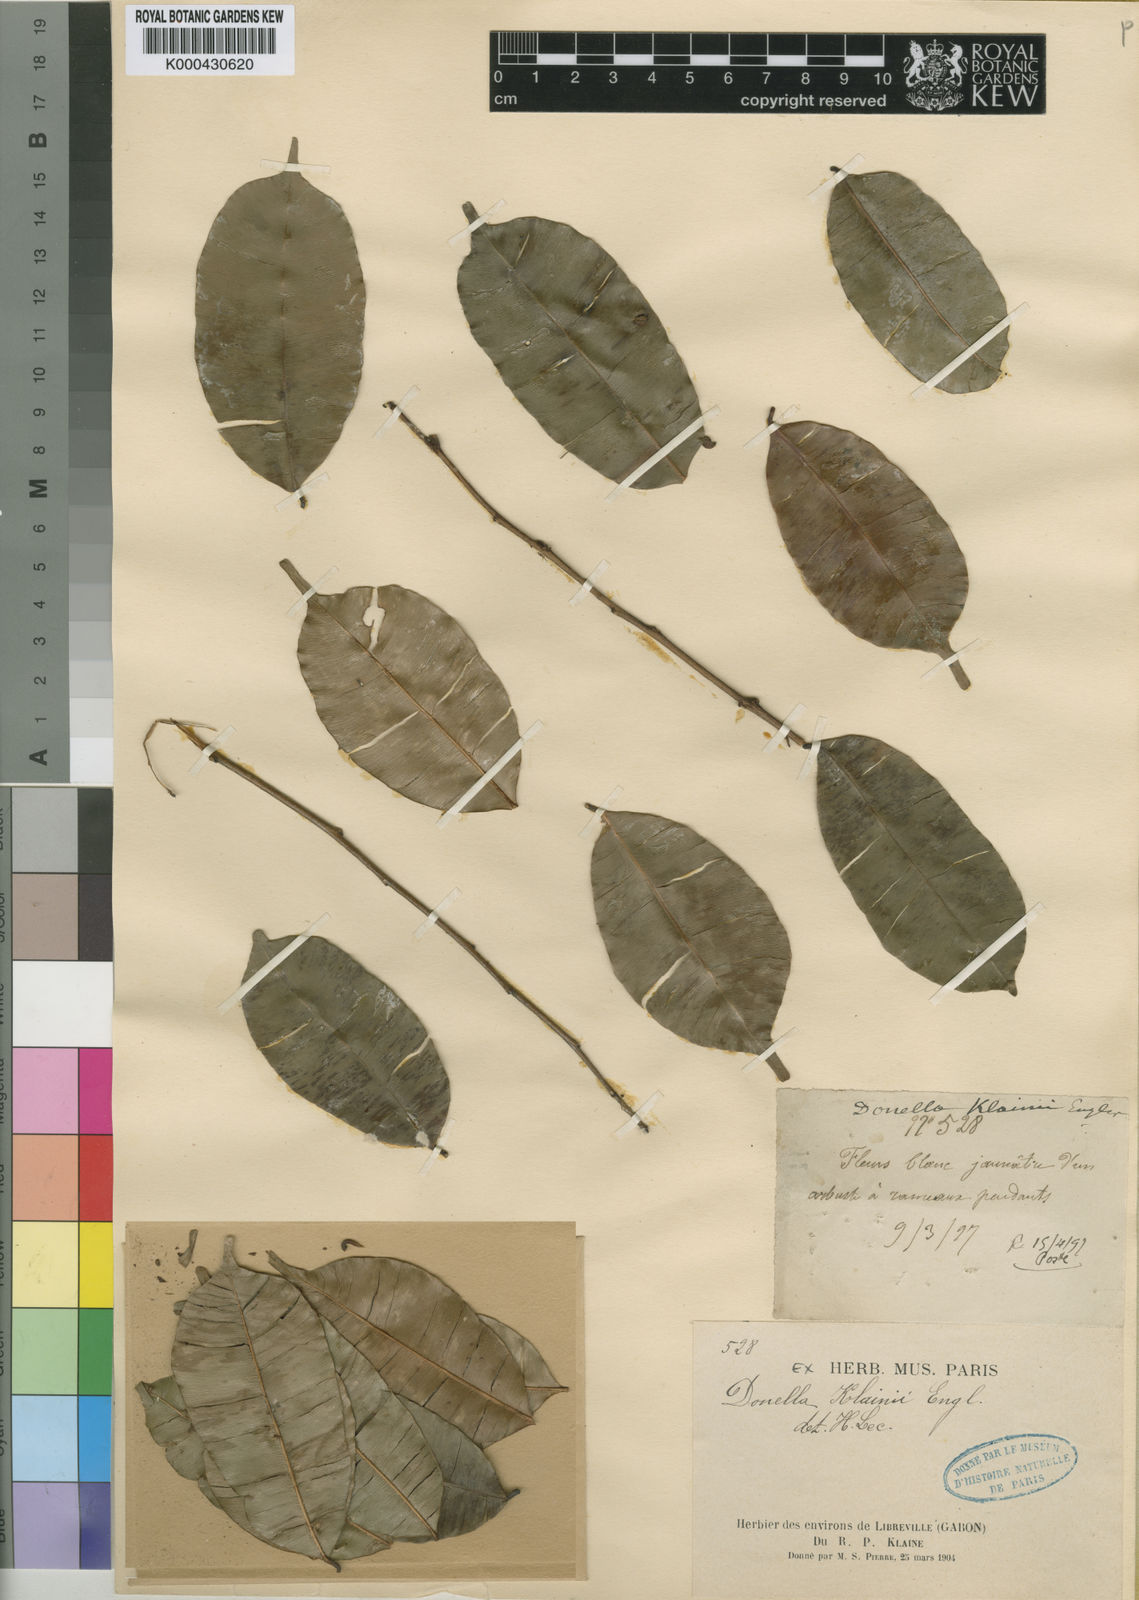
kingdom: Plantae
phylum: Tracheophyta
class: Magnoliopsida
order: Ericales
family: Sapotaceae
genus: Donella
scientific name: Donella welwitschii
